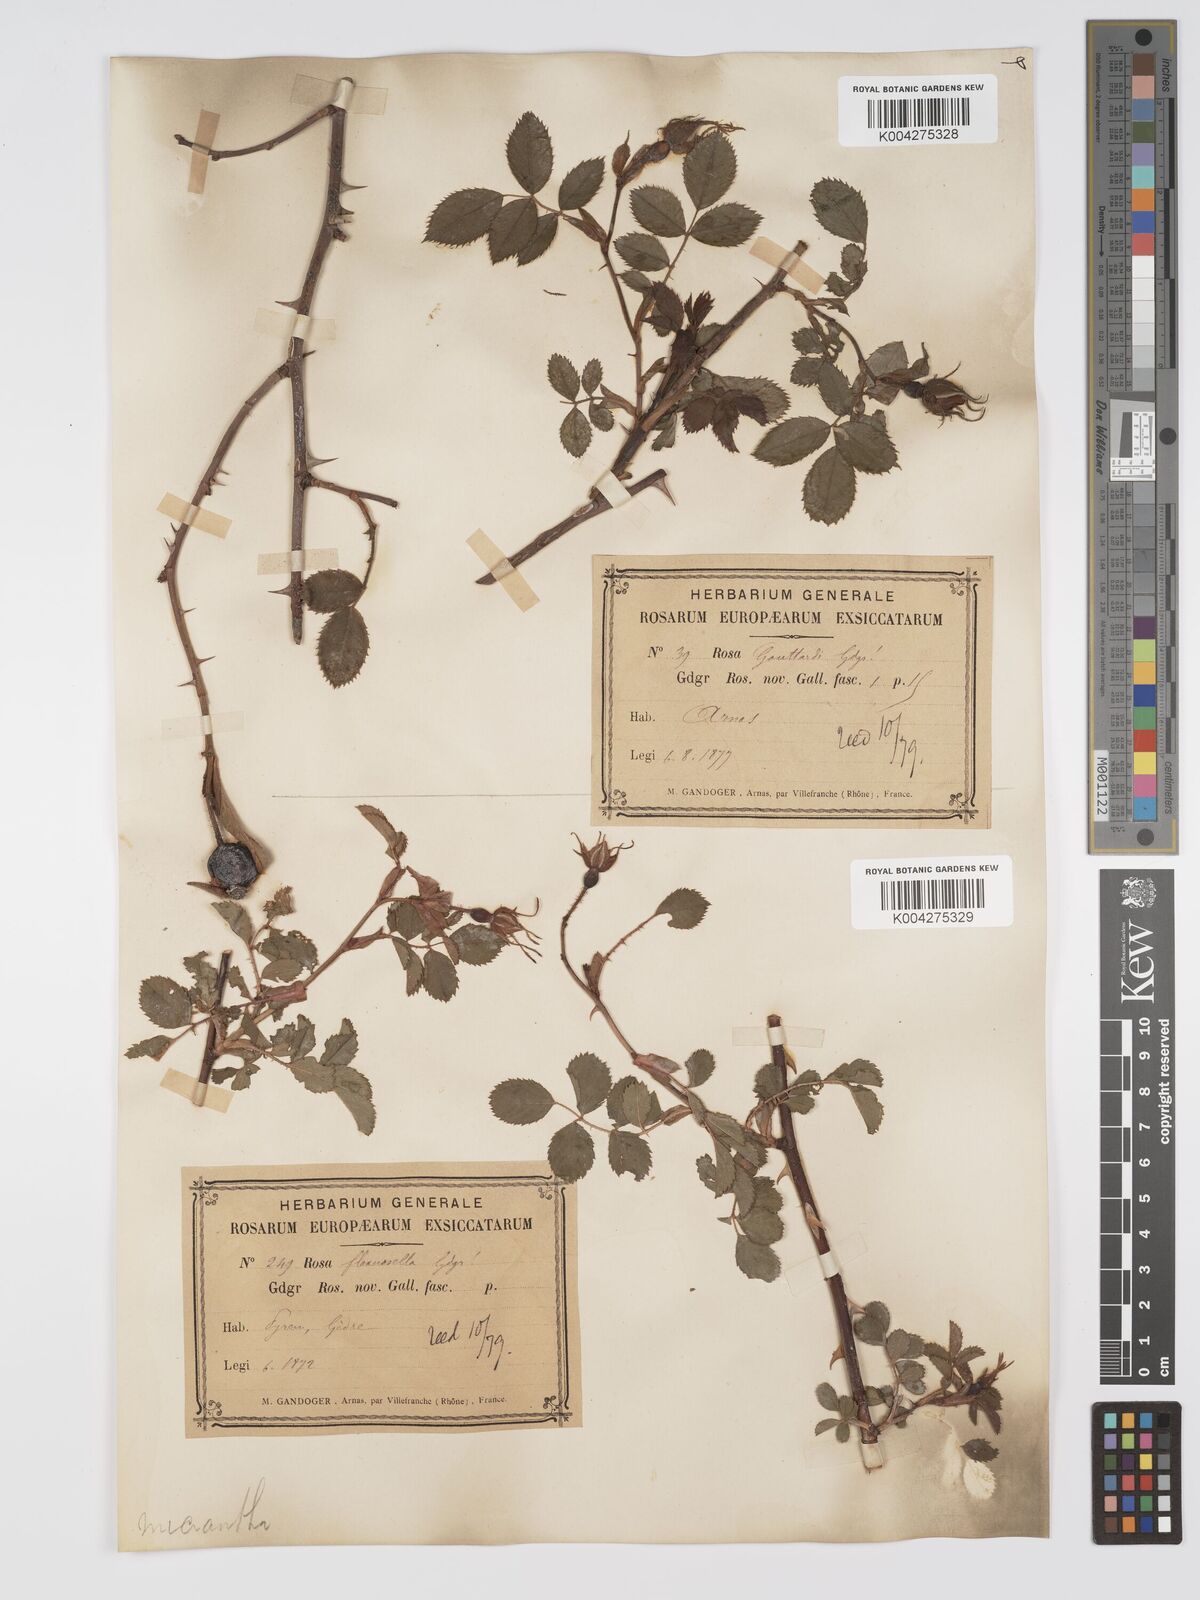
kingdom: Plantae
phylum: Tracheophyta
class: Magnoliopsida
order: Rosales
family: Rosaceae
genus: Rosa
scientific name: Rosa
